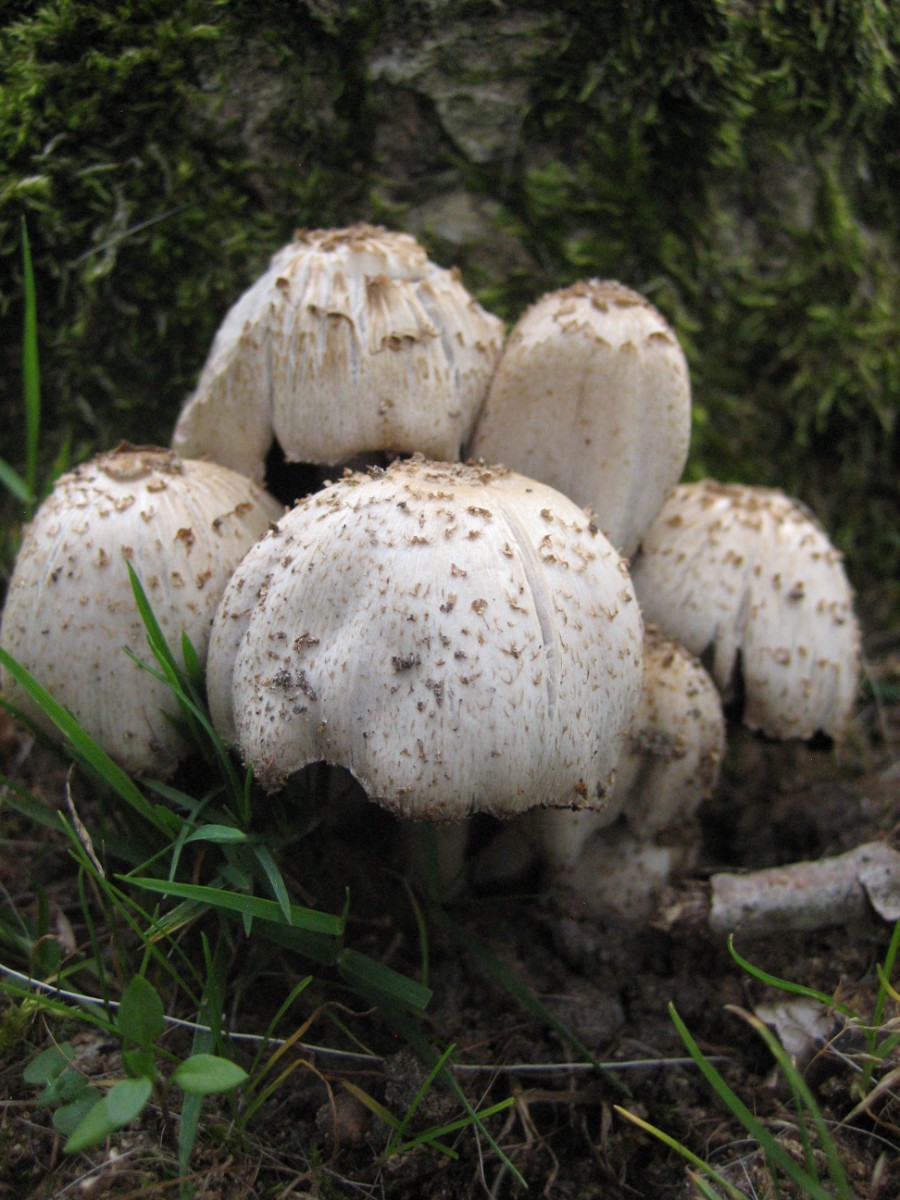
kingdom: Fungi
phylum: Basidiomycota
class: Agaricomycetes
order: Agaricales
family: Psathyrellaceae
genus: Coprinopsis
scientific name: Coprinopsis romagnesiana
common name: brunskællet blækhat
